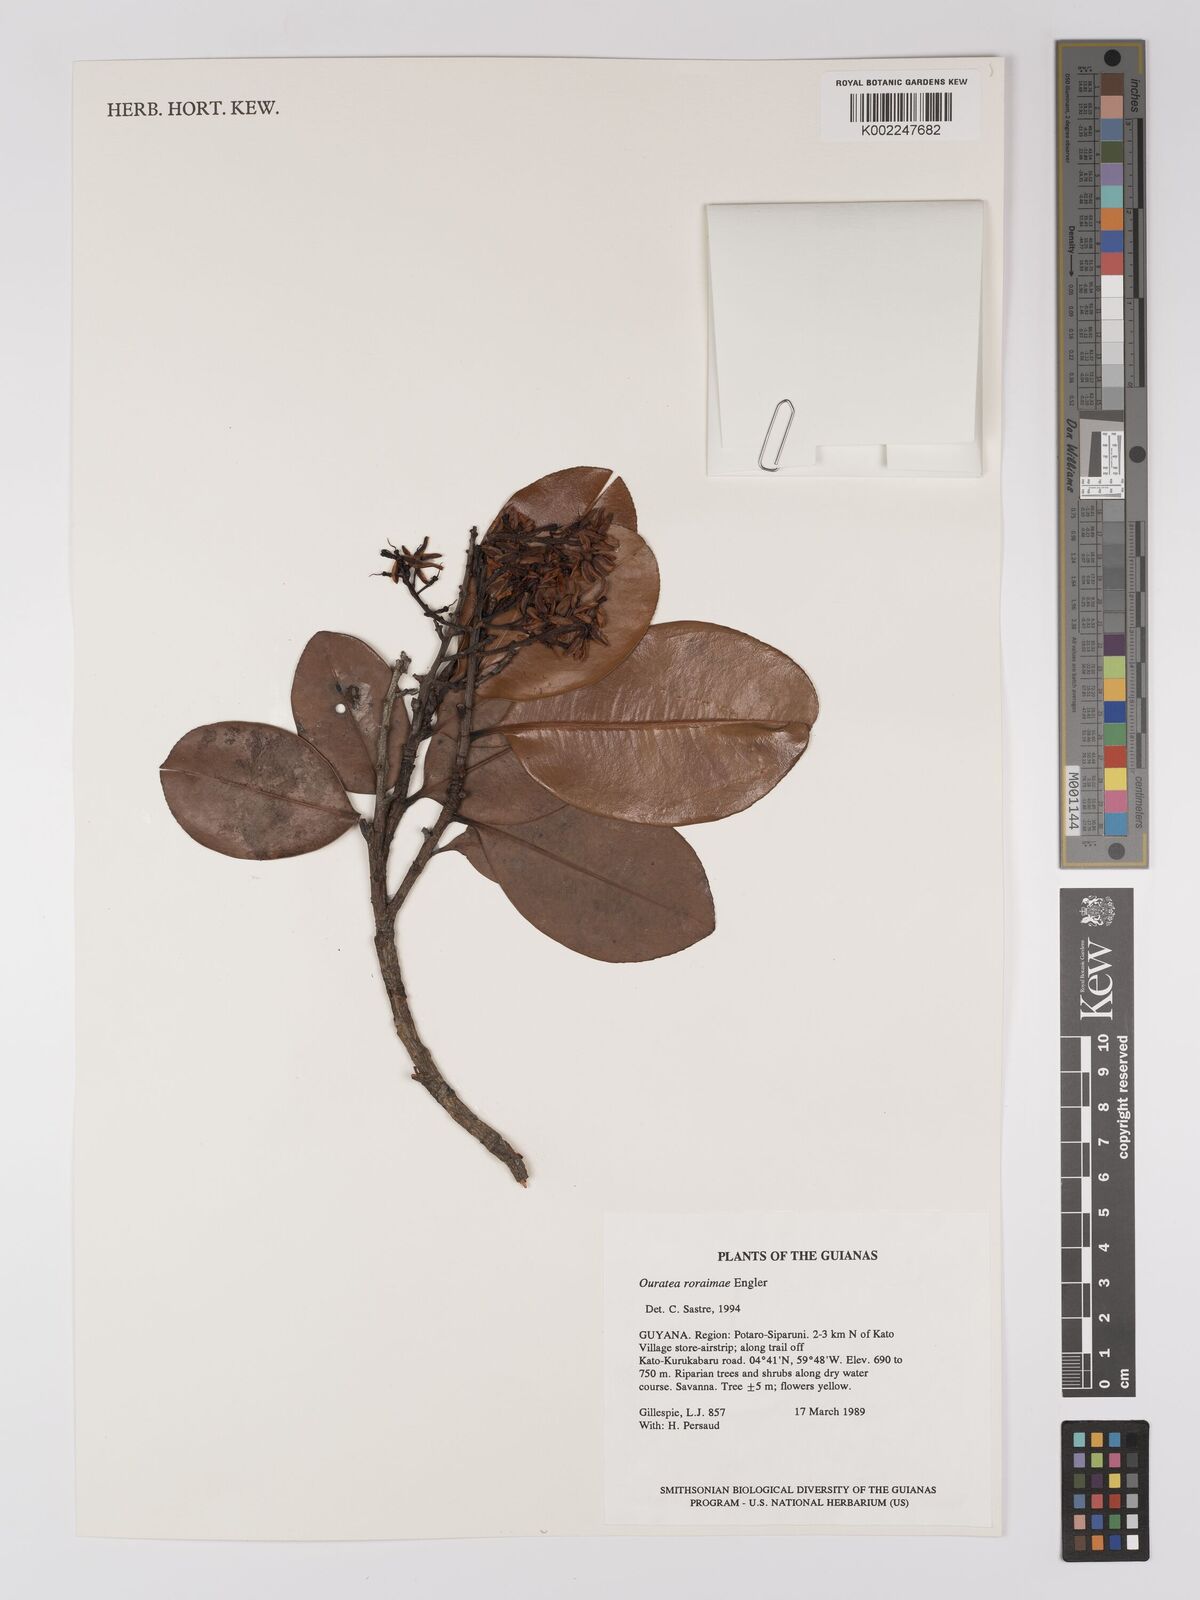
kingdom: Plantae
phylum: Tracheophyta
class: Magnoliopsida
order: Malpighiales
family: Ochnaceae
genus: Ouratea
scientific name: Ouratea roraimae
